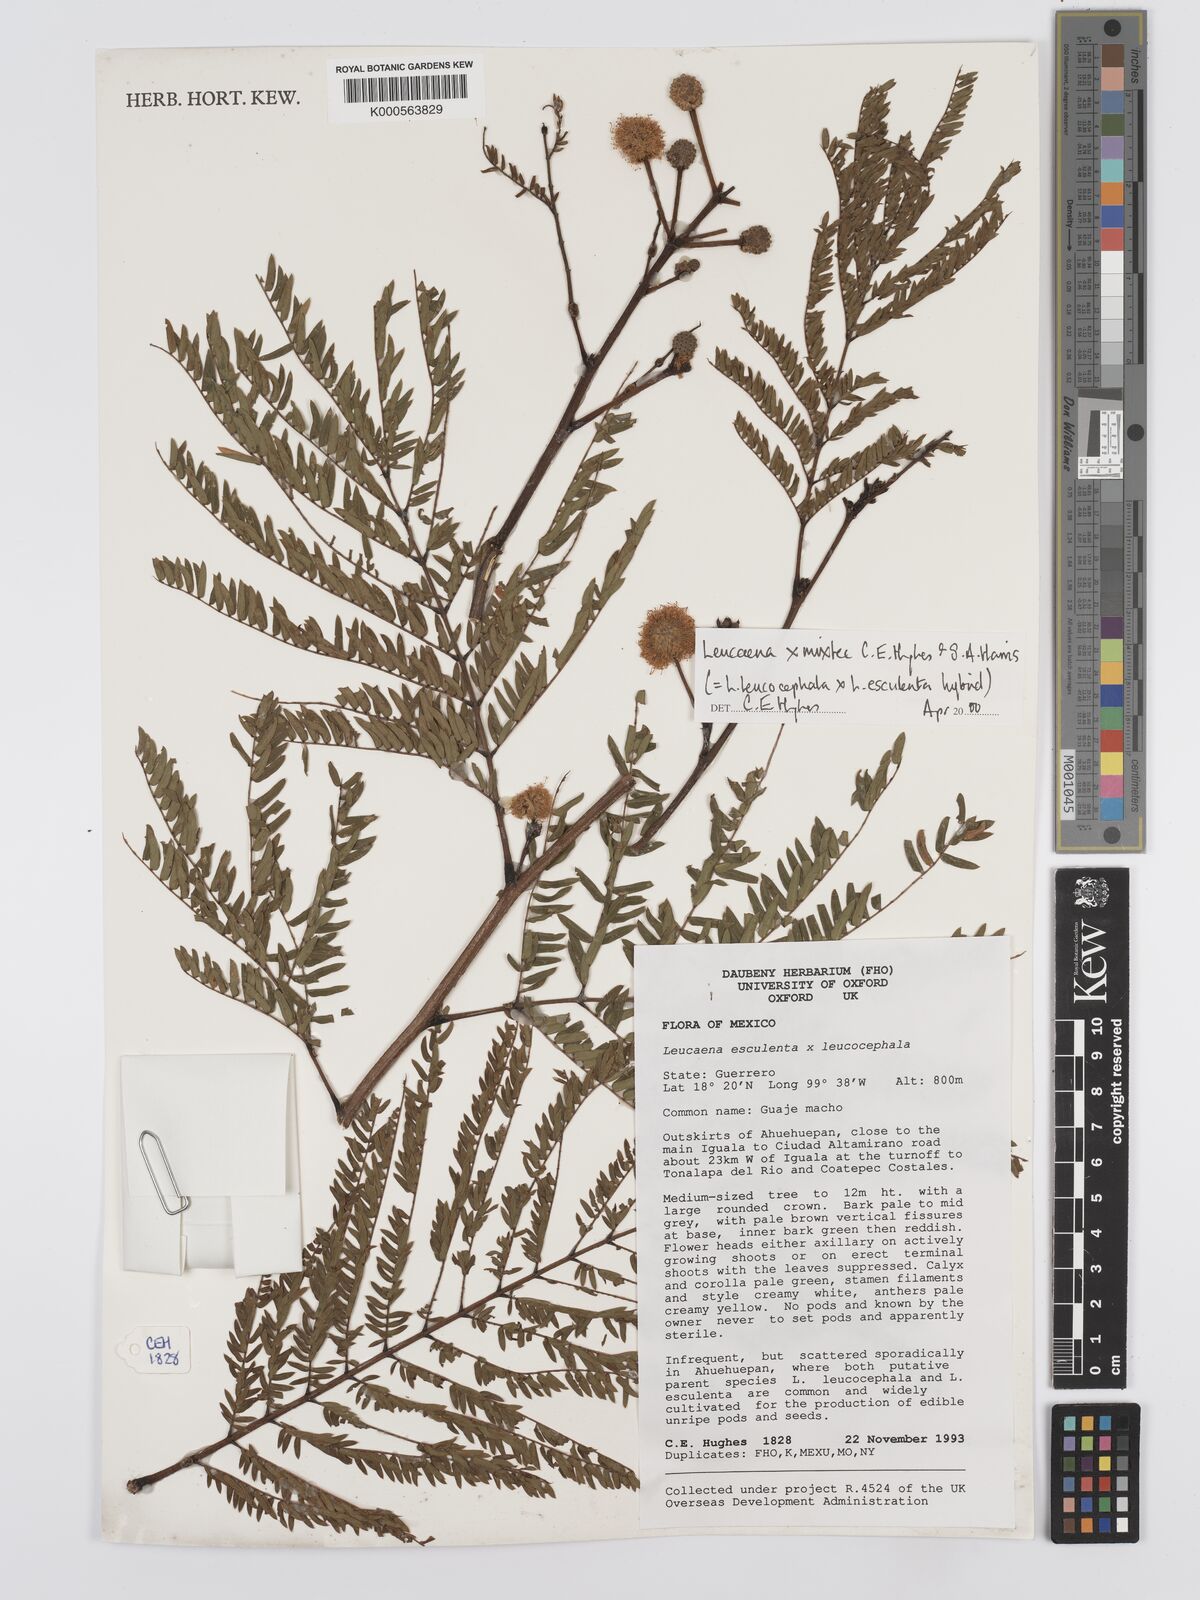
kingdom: Plantae
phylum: Tracheophyta
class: Magnoliopsida
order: Fabales
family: Fabaceae
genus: Leucaena
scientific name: Leucaena mixtec
